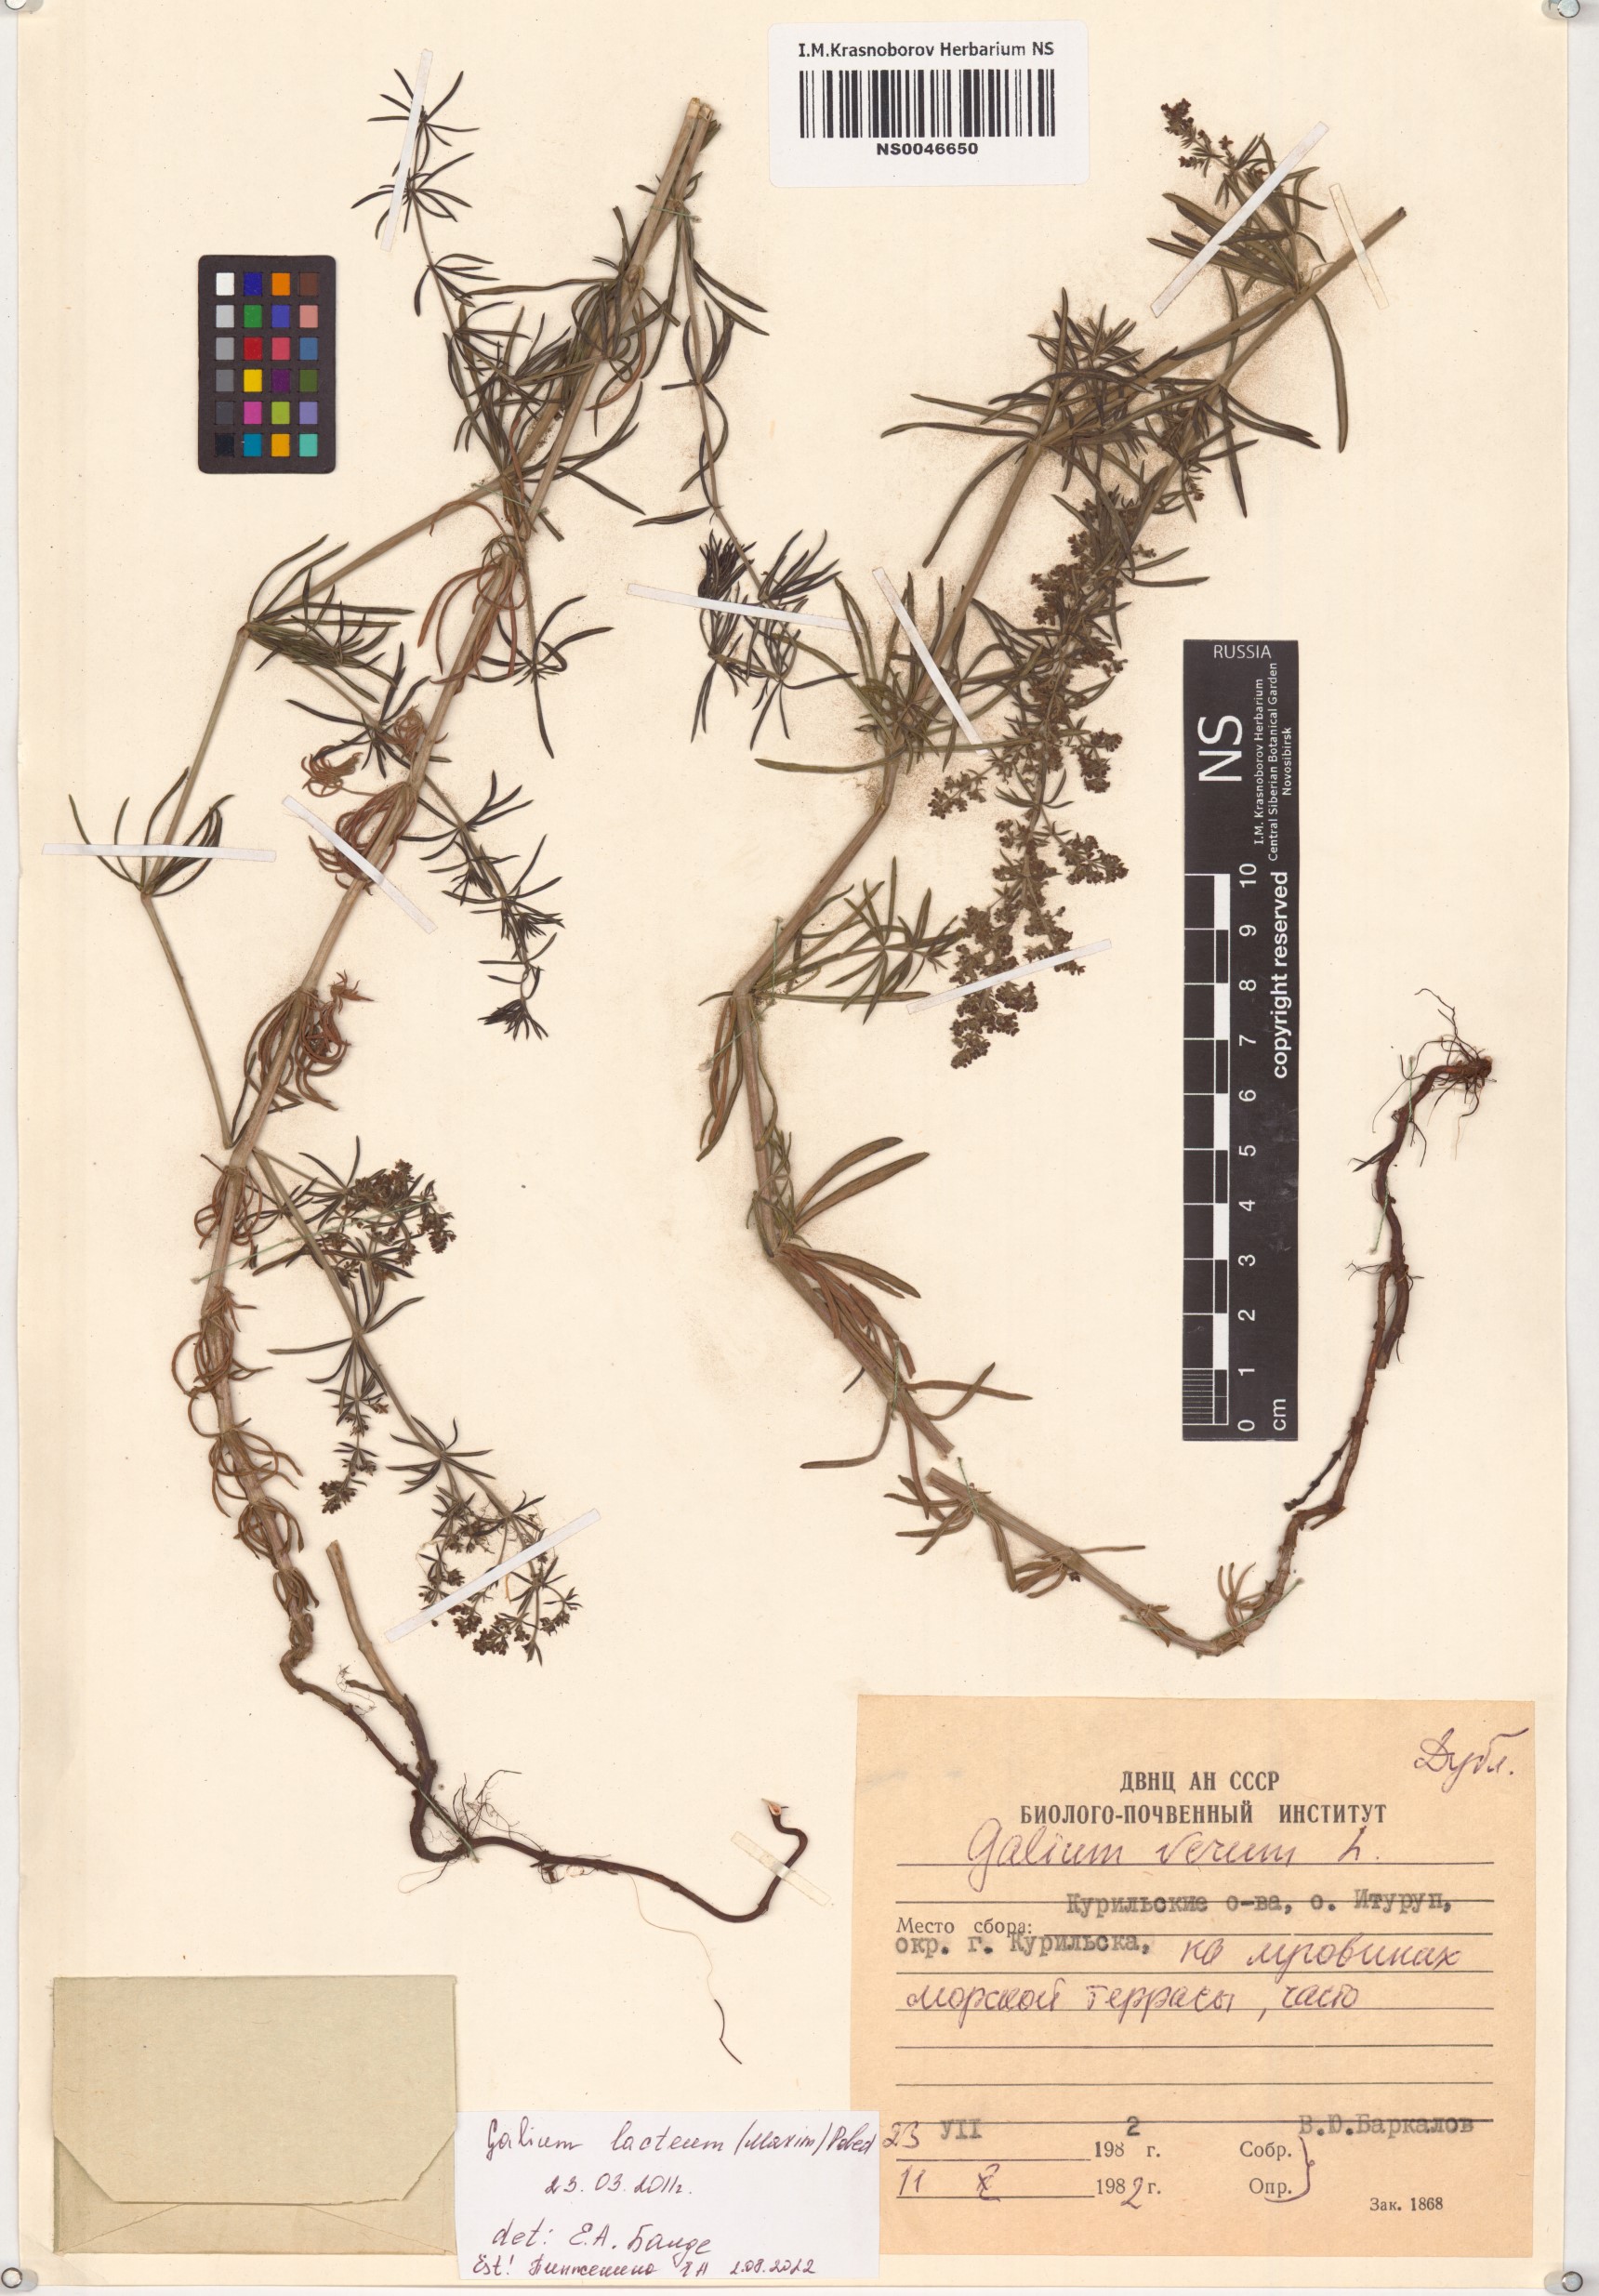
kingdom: Plantae
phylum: Tracheophyta
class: Magnoliopsida
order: Gentianales
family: Rubiaceae
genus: Galium
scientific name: Galium verum
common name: Lady's bedstraw
